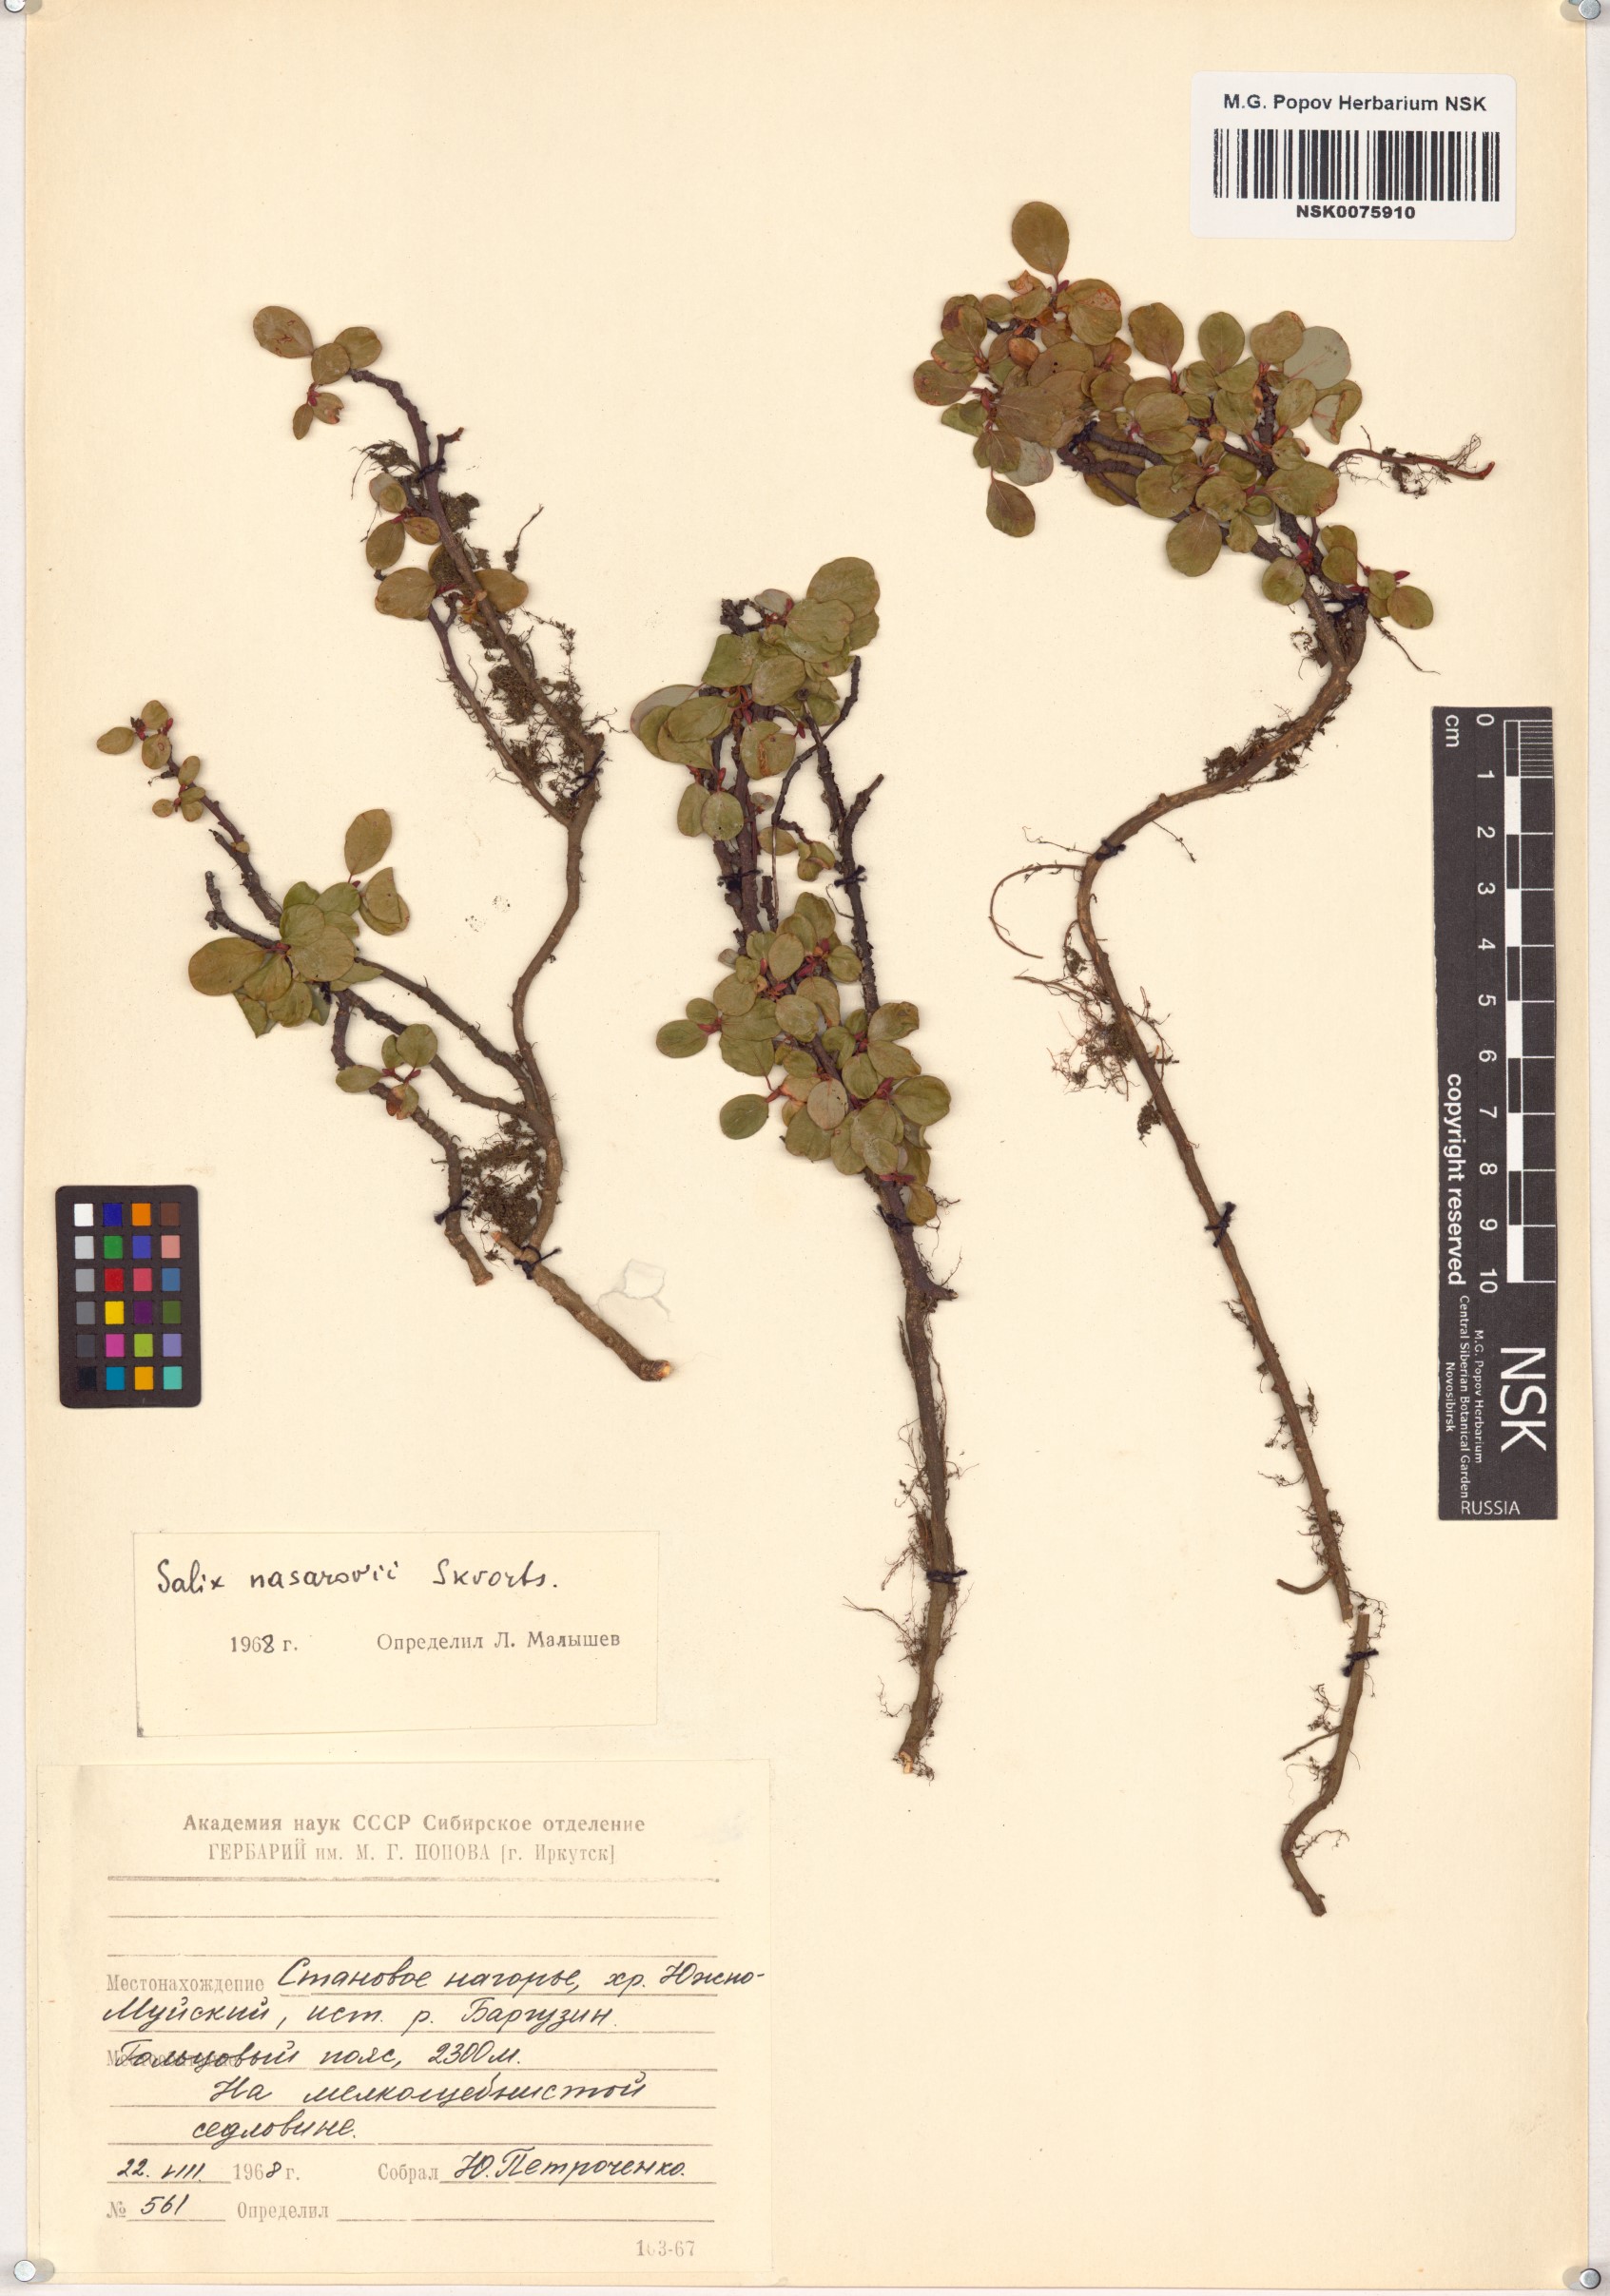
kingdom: Plantae
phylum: Tracheophyta
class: Magnoliopsida
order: Malpighiales
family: Salicaceae
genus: Salix
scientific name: Salix nasarovii
